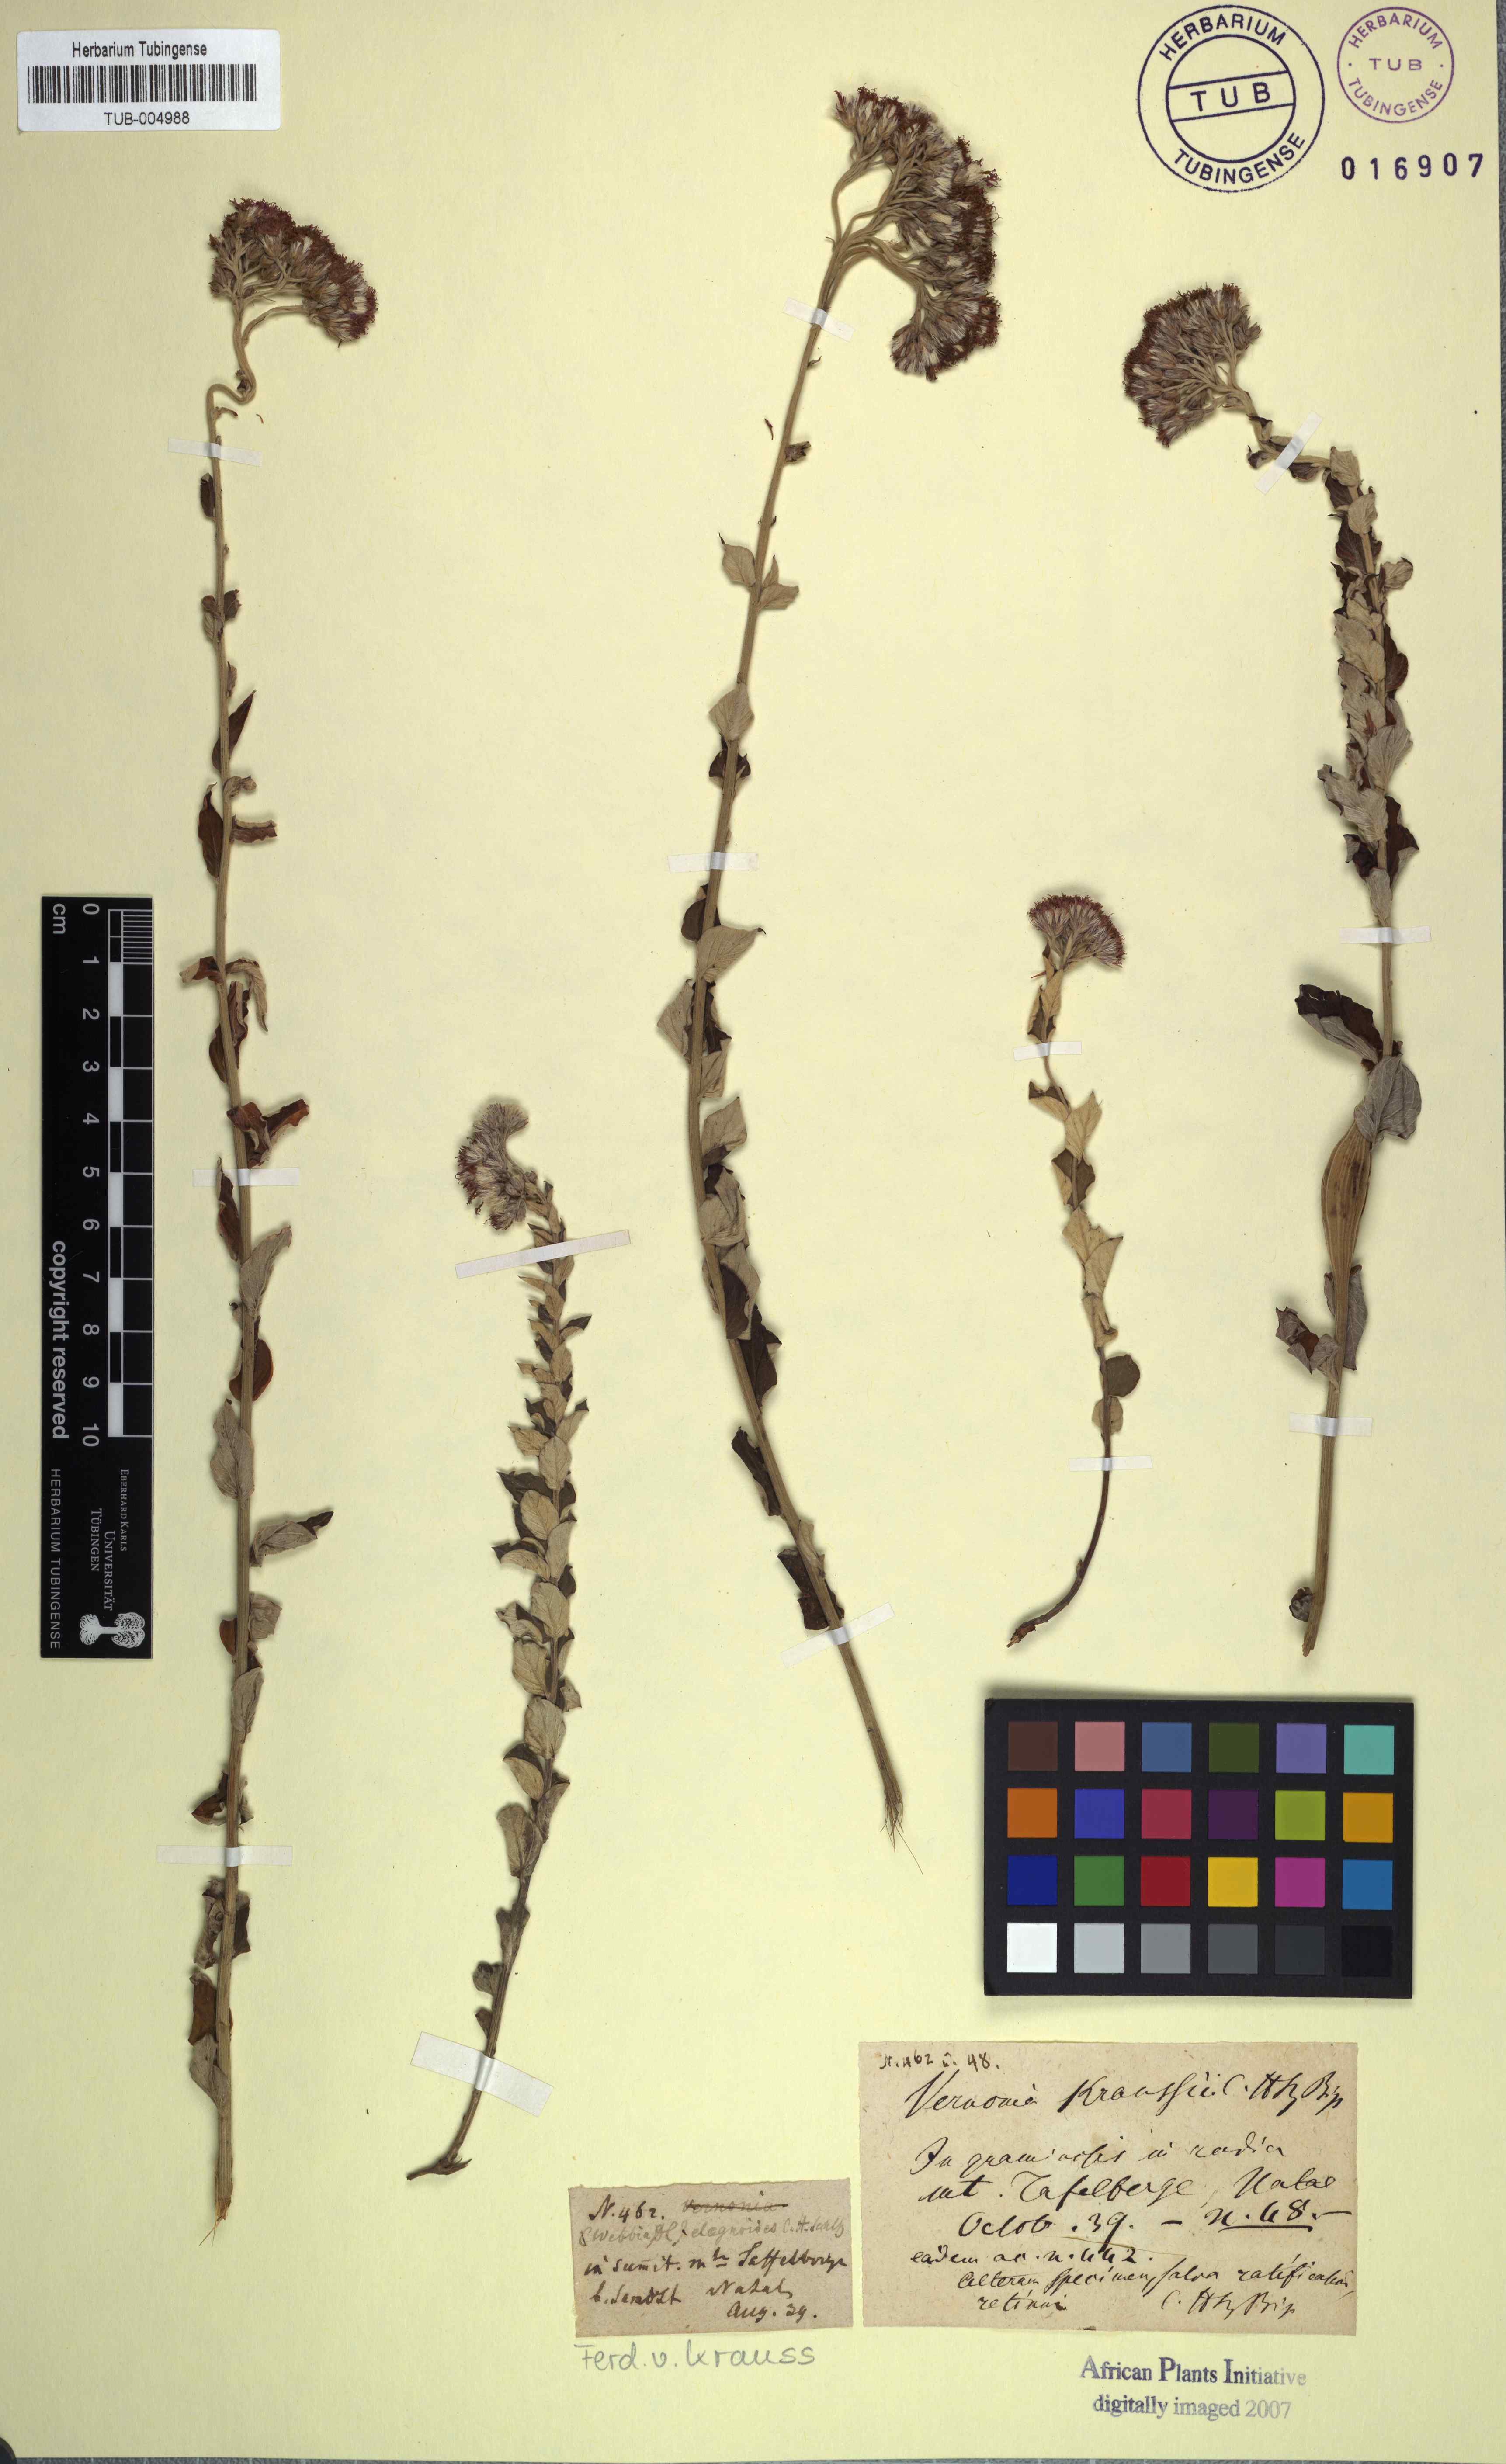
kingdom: Plantae
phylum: Tracheophyta
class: Magnoliopsida
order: Asterales
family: Asteraceae
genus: Hilliardiella
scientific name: Hilliardiella oligocephala
